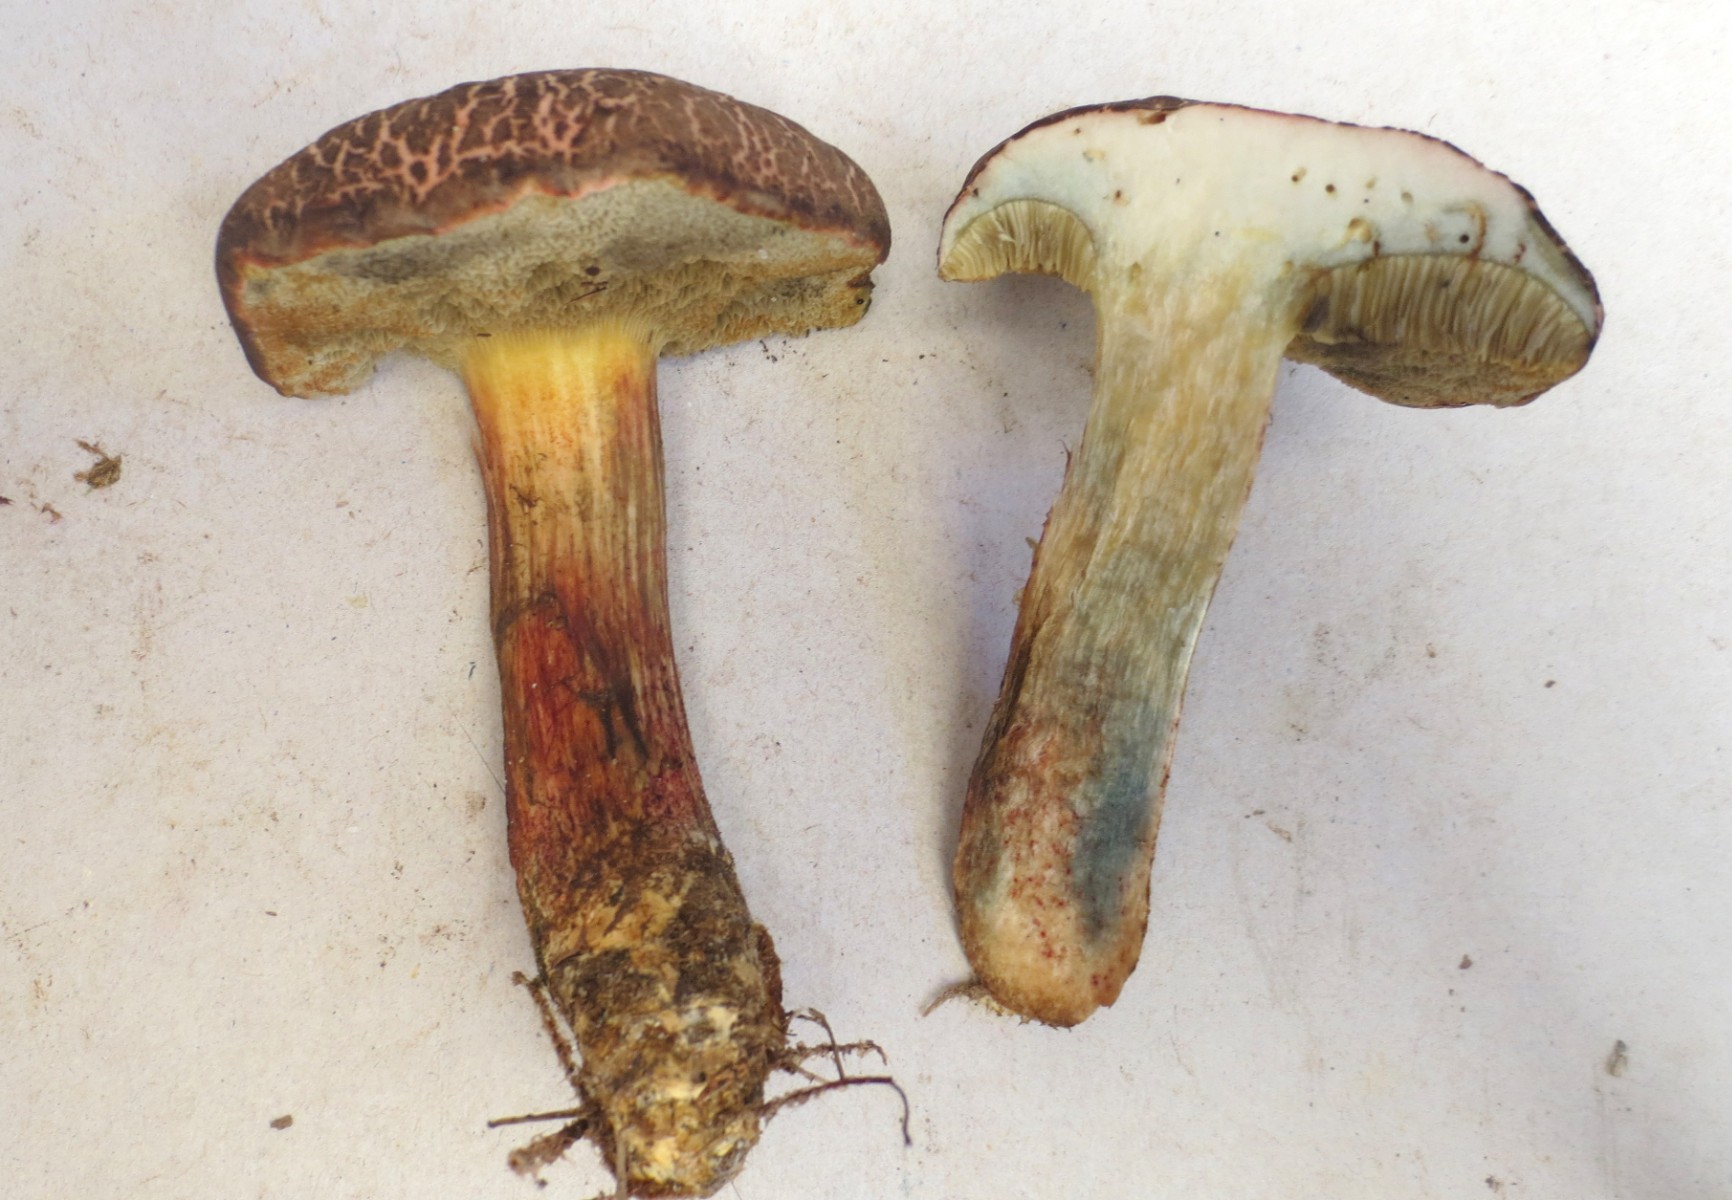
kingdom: Fungi
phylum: Basidiomycota
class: Agaricomycetes
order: Boletales
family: Boletaceae
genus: Xerocomellus
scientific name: Xerocomellus cisalpinus
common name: finsprukken rørhat
